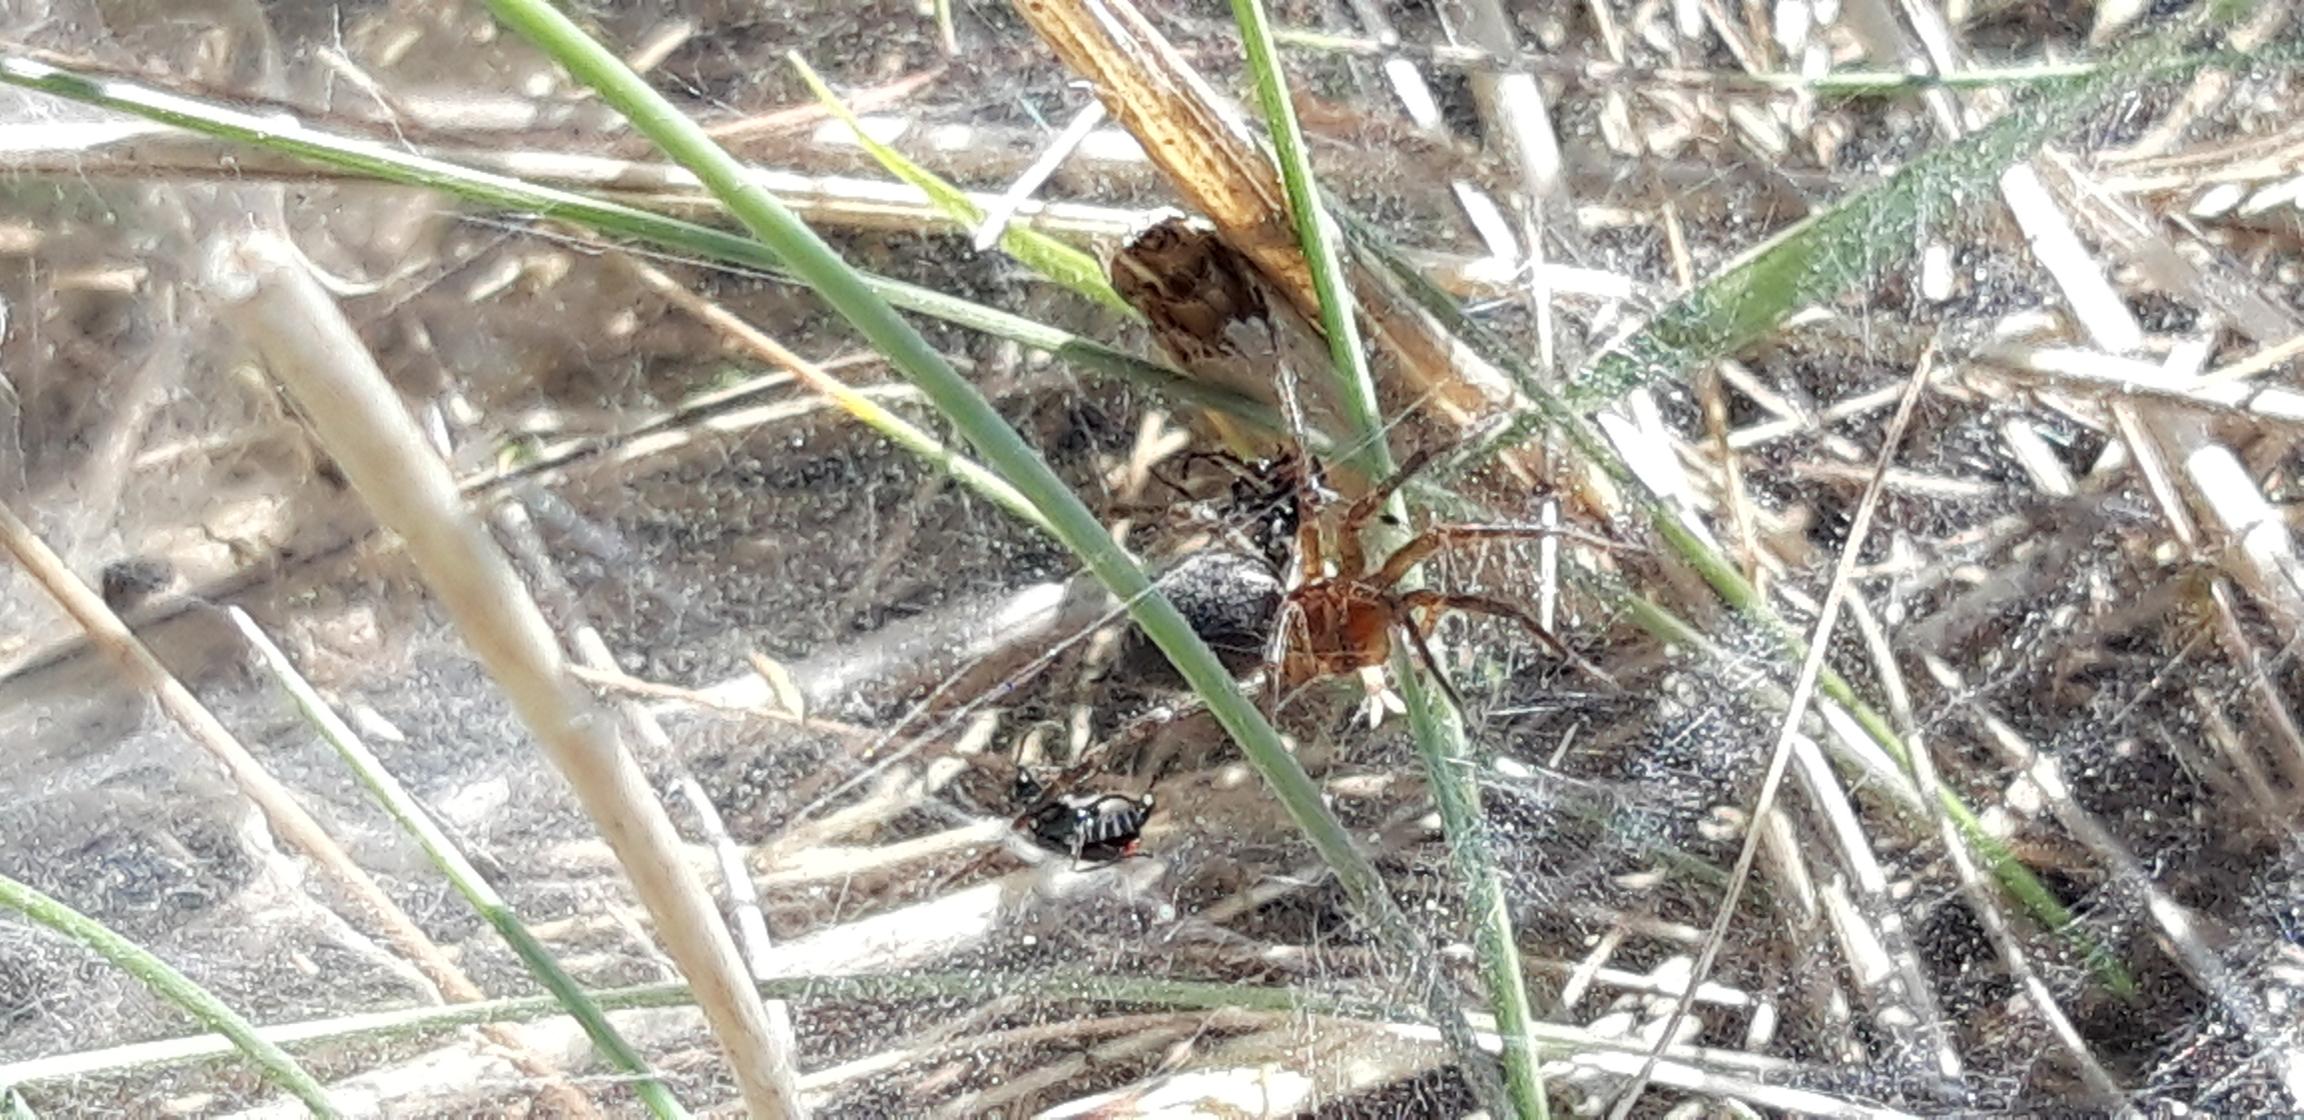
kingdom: Animalia
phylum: Arthropoda
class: Arachnida
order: Araneae
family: Agelenidae
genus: Agelena
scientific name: Agelena labyrinthica
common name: Labyrintedderkop
